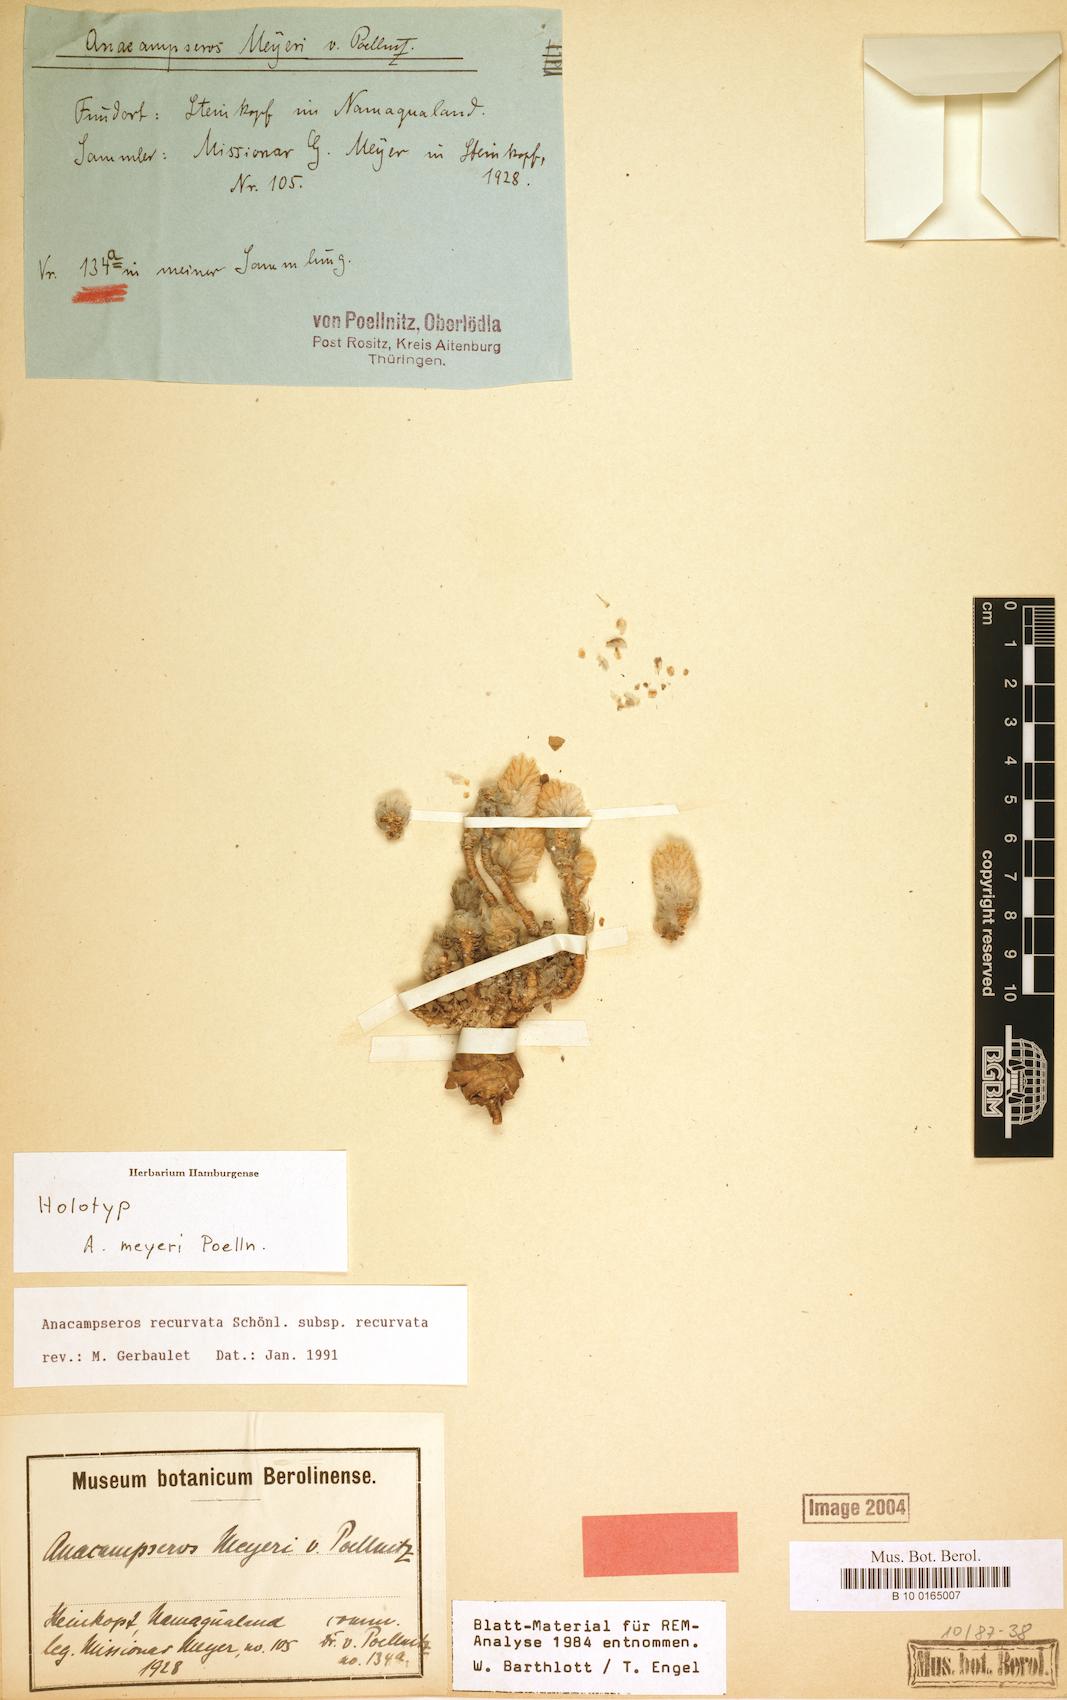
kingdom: Plantae
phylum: Tracheophyta
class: Magnoliopsida
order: Caryophyllales
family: Anacampserotaceae
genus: Avonia
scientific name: Avonia recurvata
